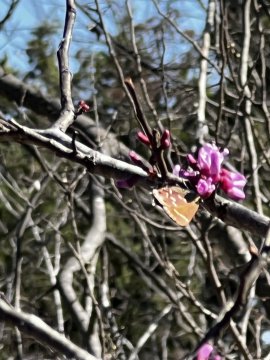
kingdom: Animalia
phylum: Arthropoda
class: Insecta
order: Lepidoptera
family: Lycaenidae
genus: Incisalia
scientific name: Incisalia henrici
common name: Henry's Elfin
